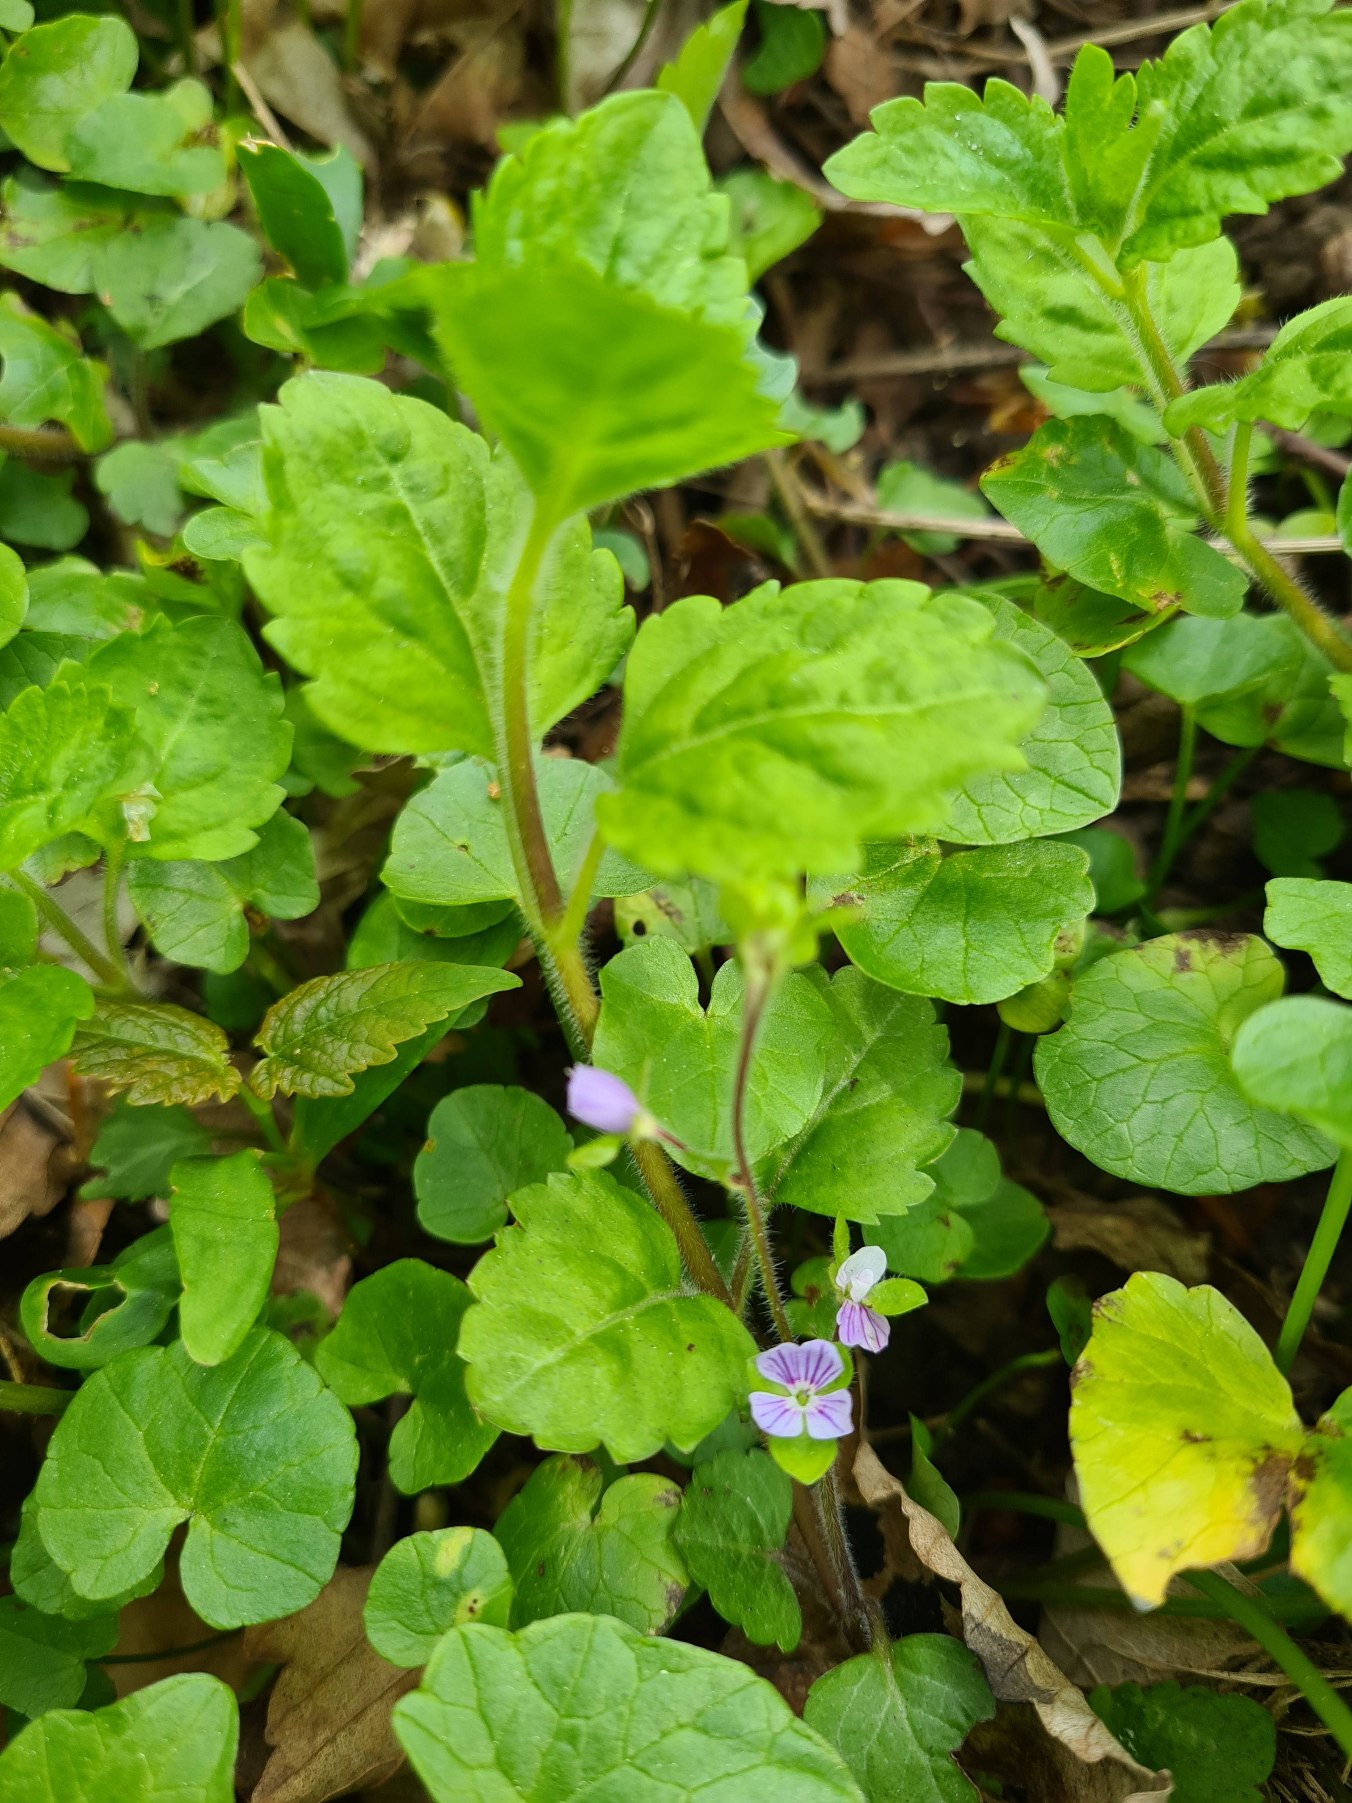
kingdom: Plantae
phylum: Tracheophyta
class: Magnoliopsida
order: Lamiales
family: Plantaginaceae
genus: Veronica
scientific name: Veronica montana
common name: Bjerg-ærenpris
